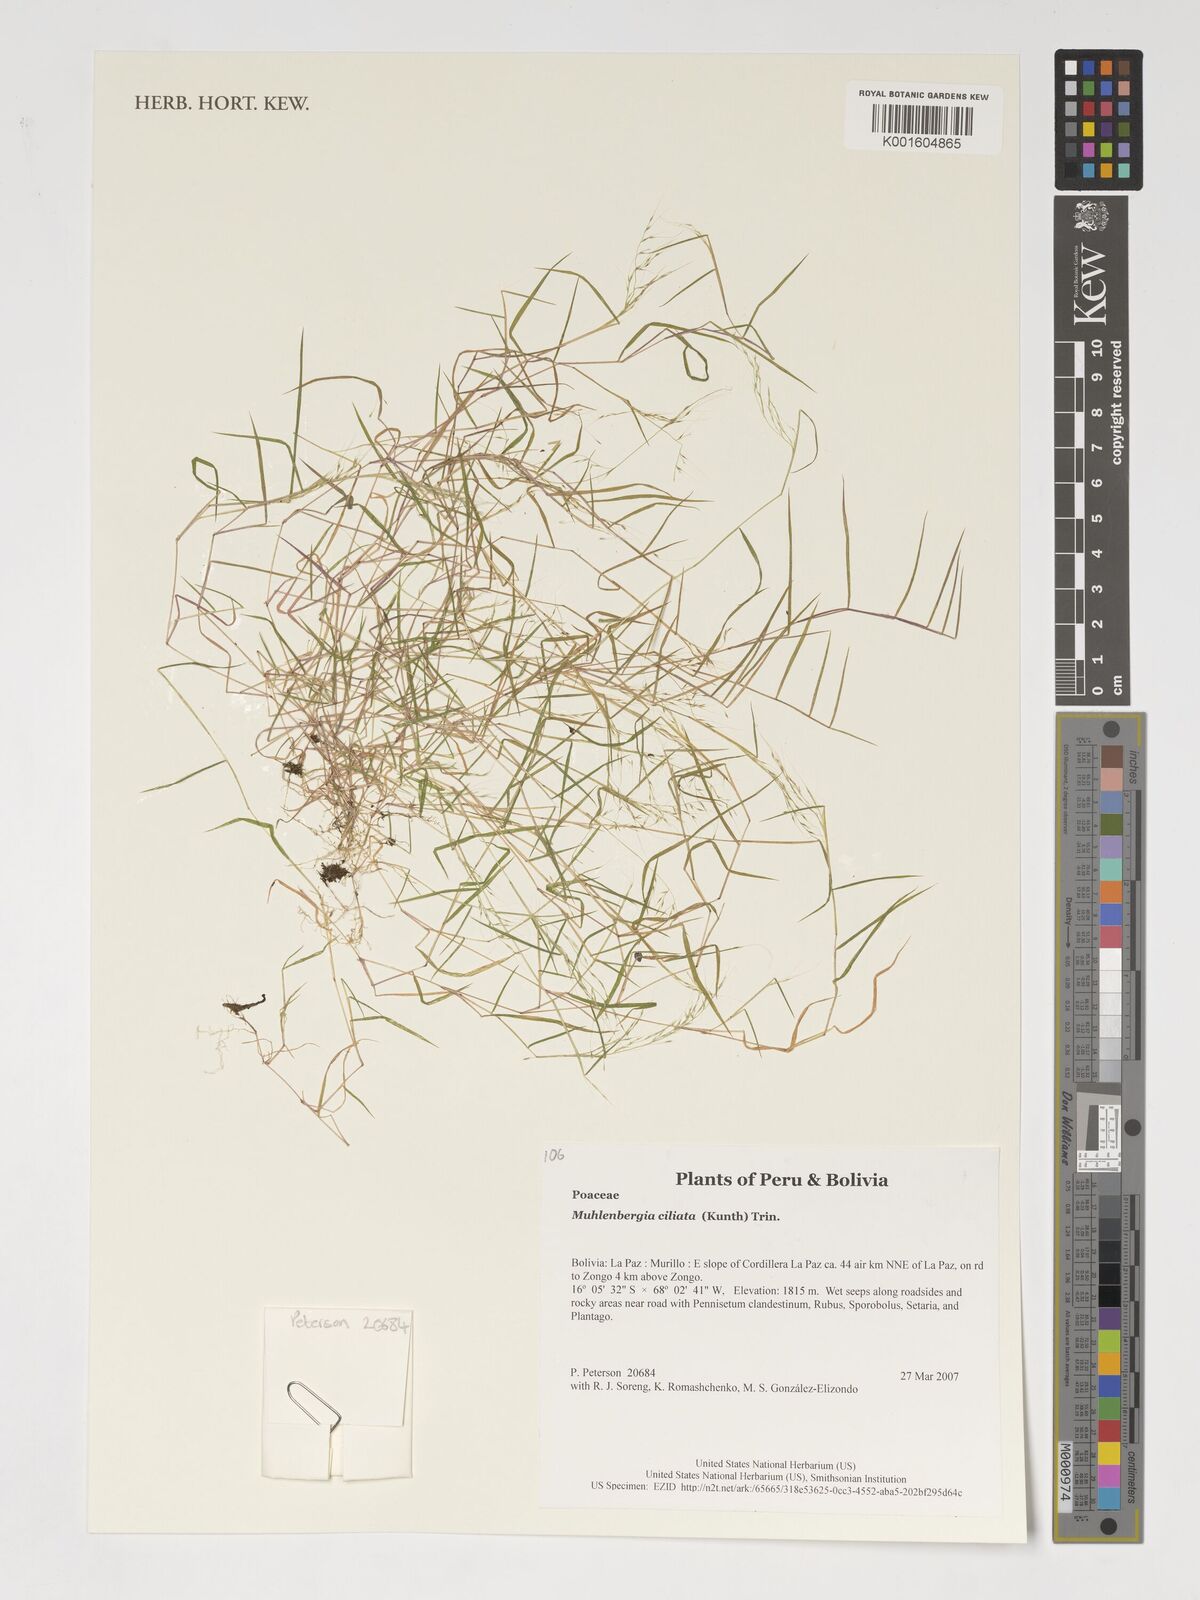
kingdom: Plantae
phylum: Tracheophyta
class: Liliopsida
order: Poales
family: Poaceae
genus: Muhlenbergia
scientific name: Muhlenbergia ciliata
